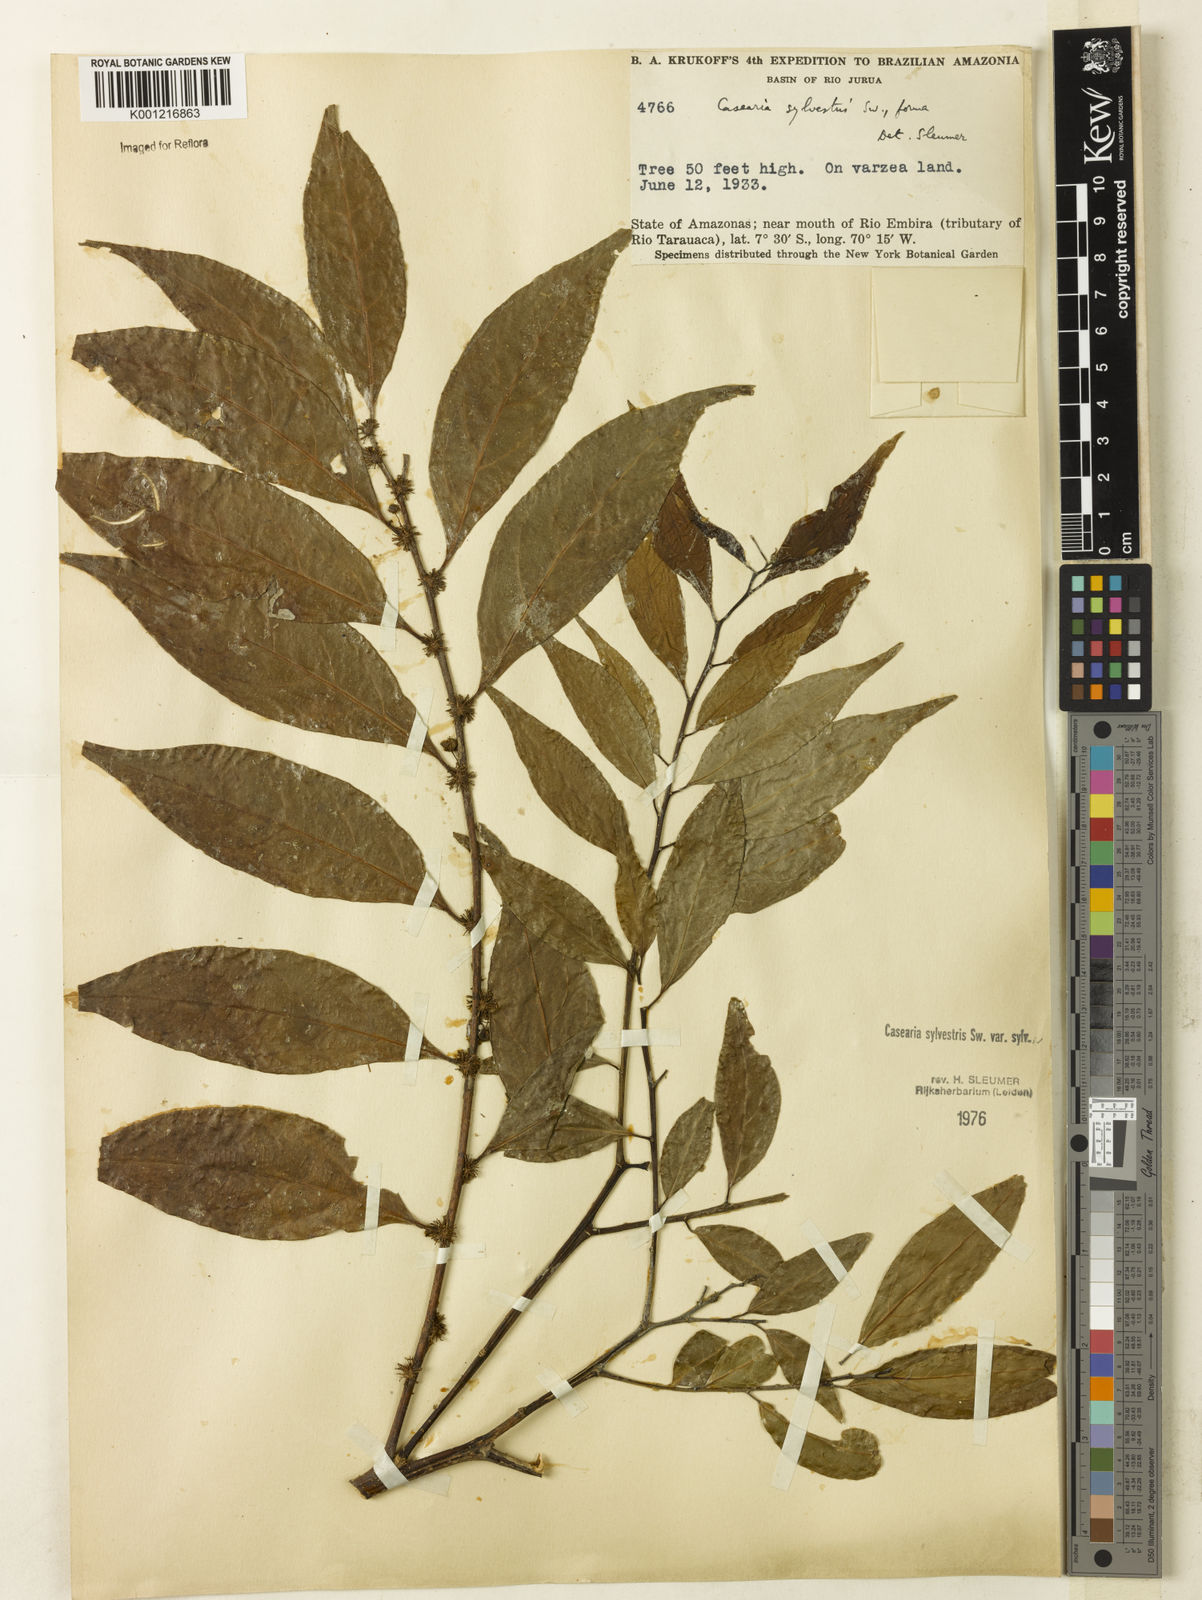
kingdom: Plantae
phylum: Tracheophyta
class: Magnoliopsida
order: Malpighiales
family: Salicaceae
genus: Casearia
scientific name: Casearia sylvestris
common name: Wild sage
